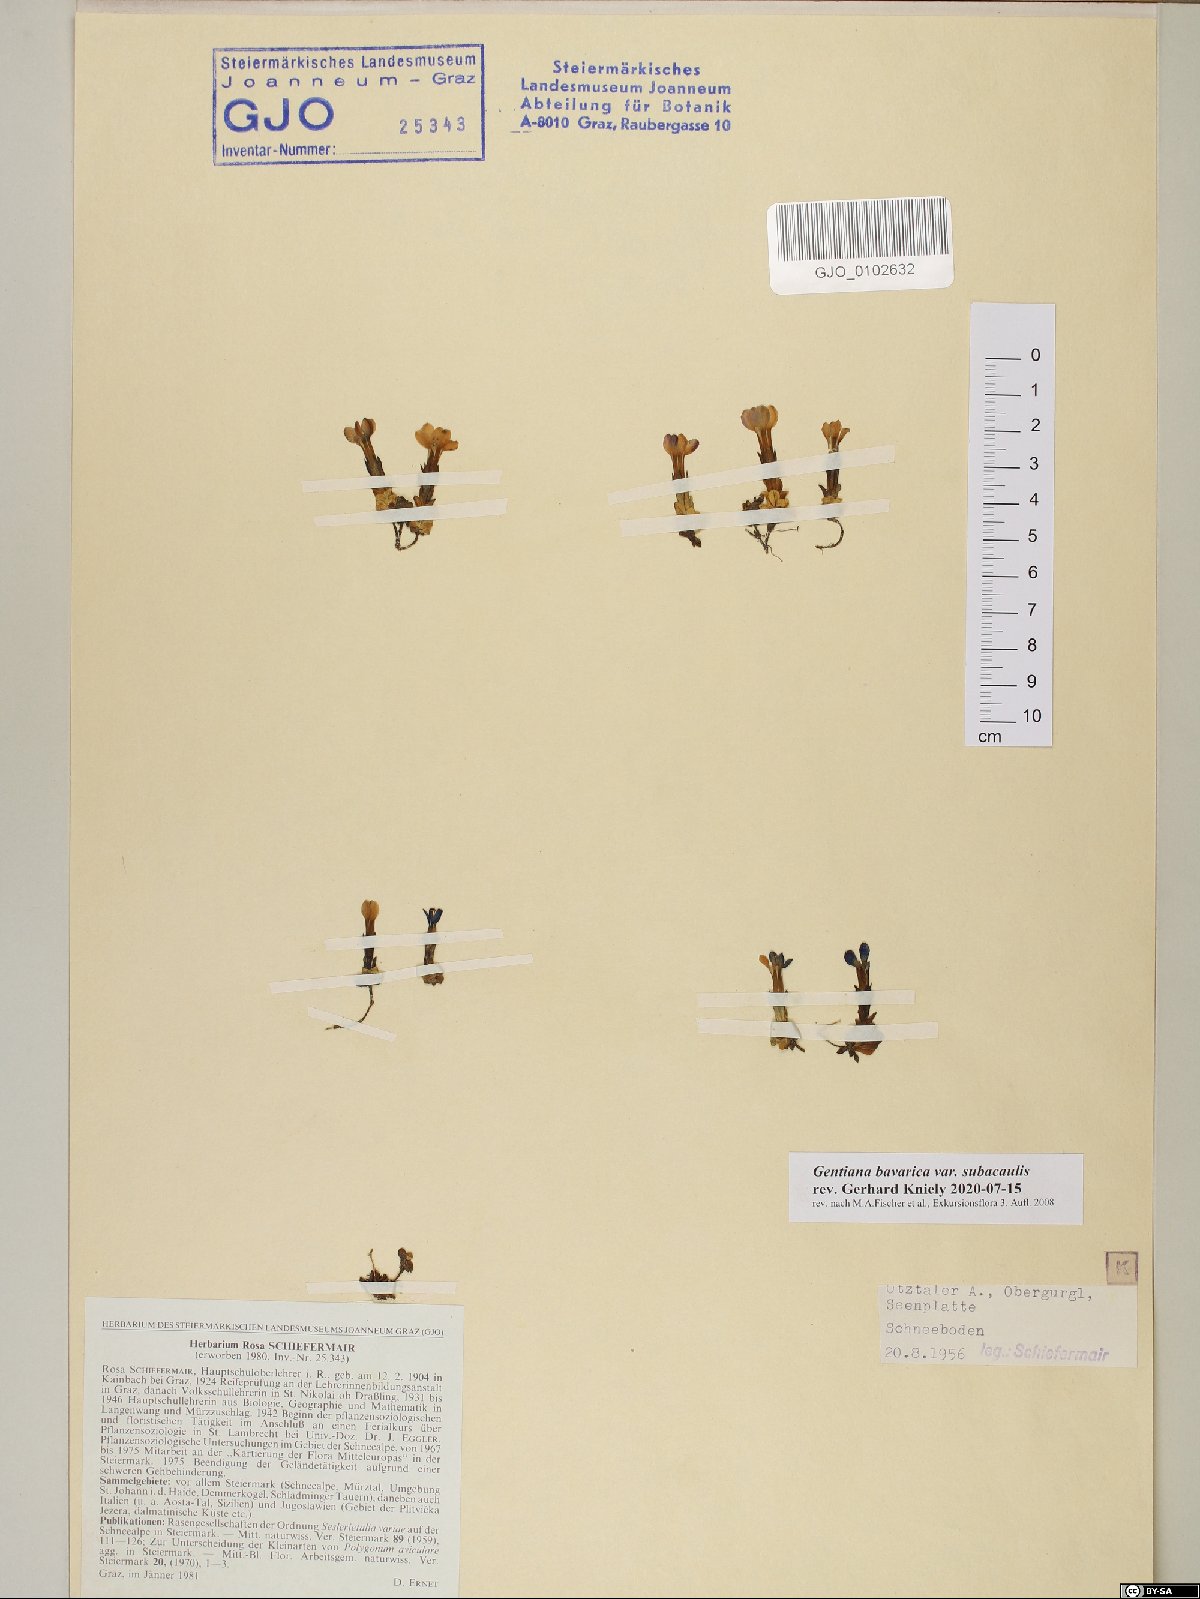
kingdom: Plantae
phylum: Tracheophyta
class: Magnoliopsida
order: Gentianales
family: Gentianaceae
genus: Gentiana
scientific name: Gentiana bavarica
